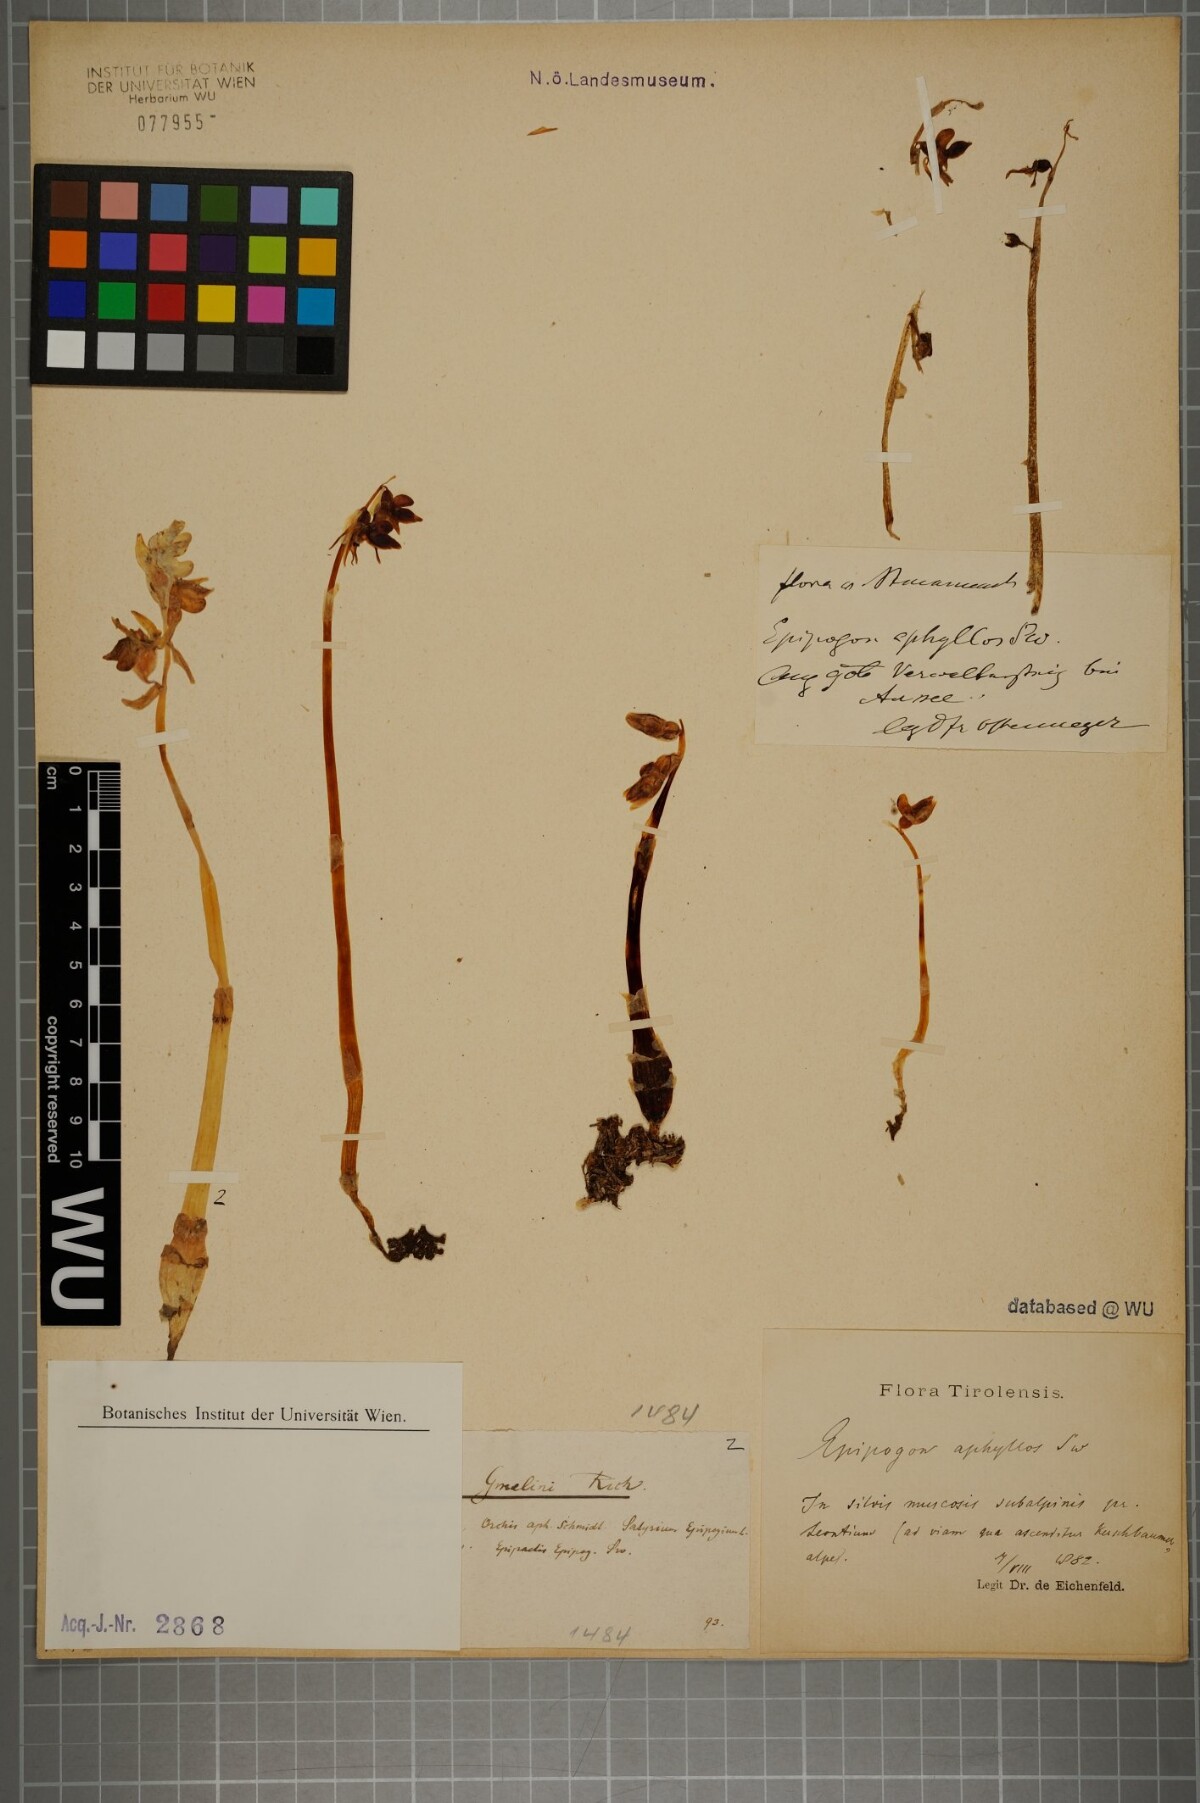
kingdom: Plantae
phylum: Tracheophyta
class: Liliopsida
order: Asparagales
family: Orchidaceae
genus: Epipogium
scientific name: Epipogium aphyllum
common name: Ghost orchid
